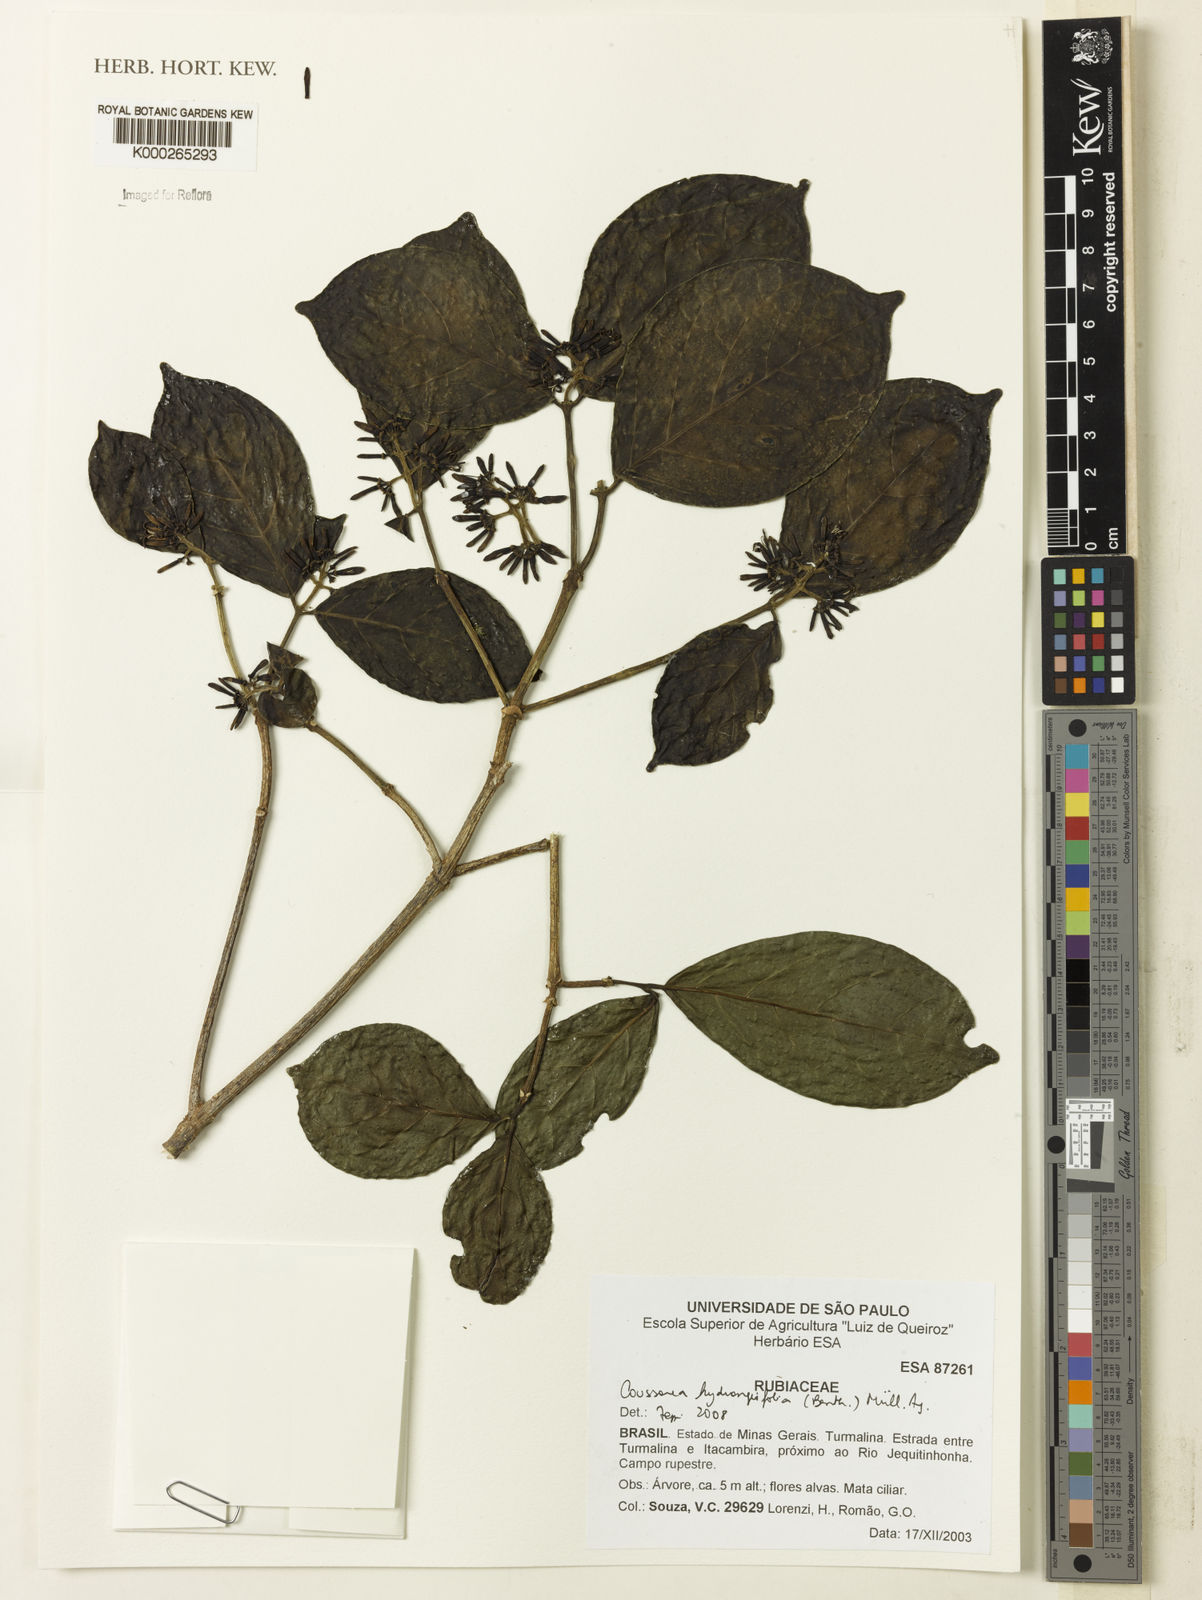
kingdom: Plantae
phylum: Tracheophyta
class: Magnoliopsida
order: Gentianales
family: Rubiaceae
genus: Coussarea
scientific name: Coussarea
